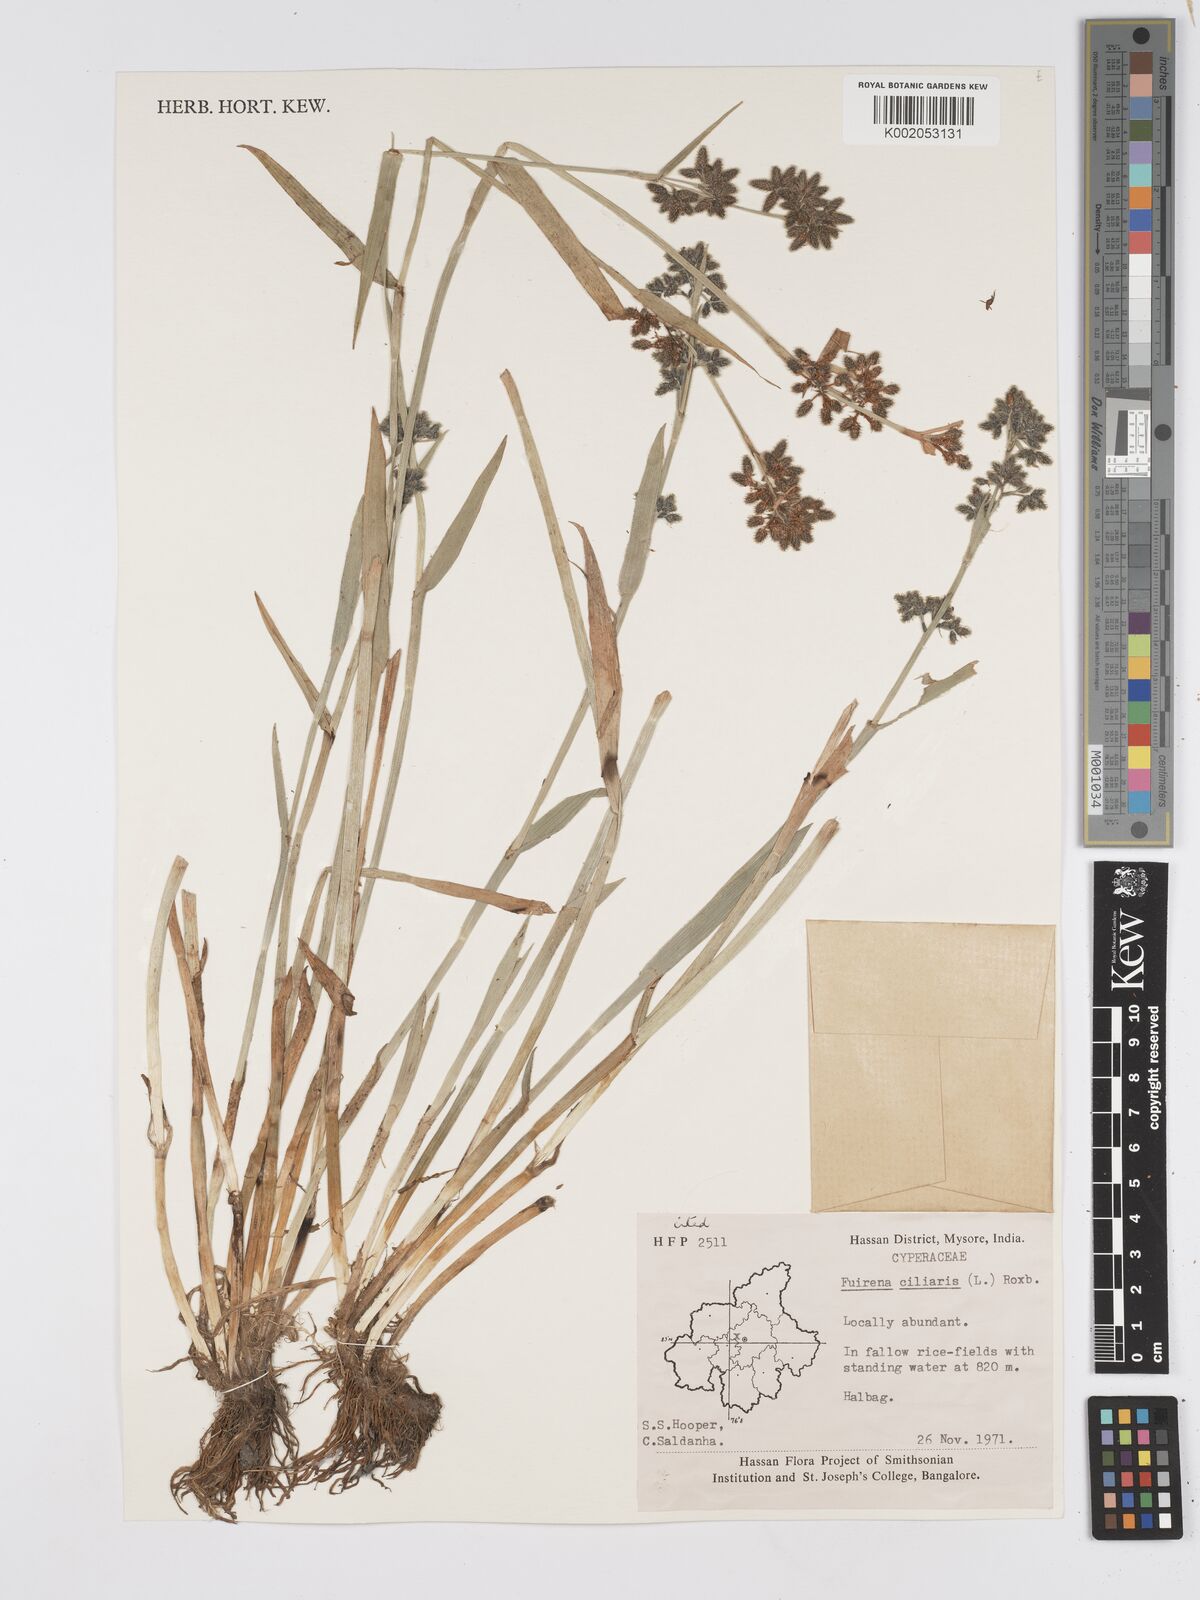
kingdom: Plantae
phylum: Tracheophyta
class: Liliopsida
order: Poales
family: Cyperaceae
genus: Fuirena
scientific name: Fuirena ciliaris
